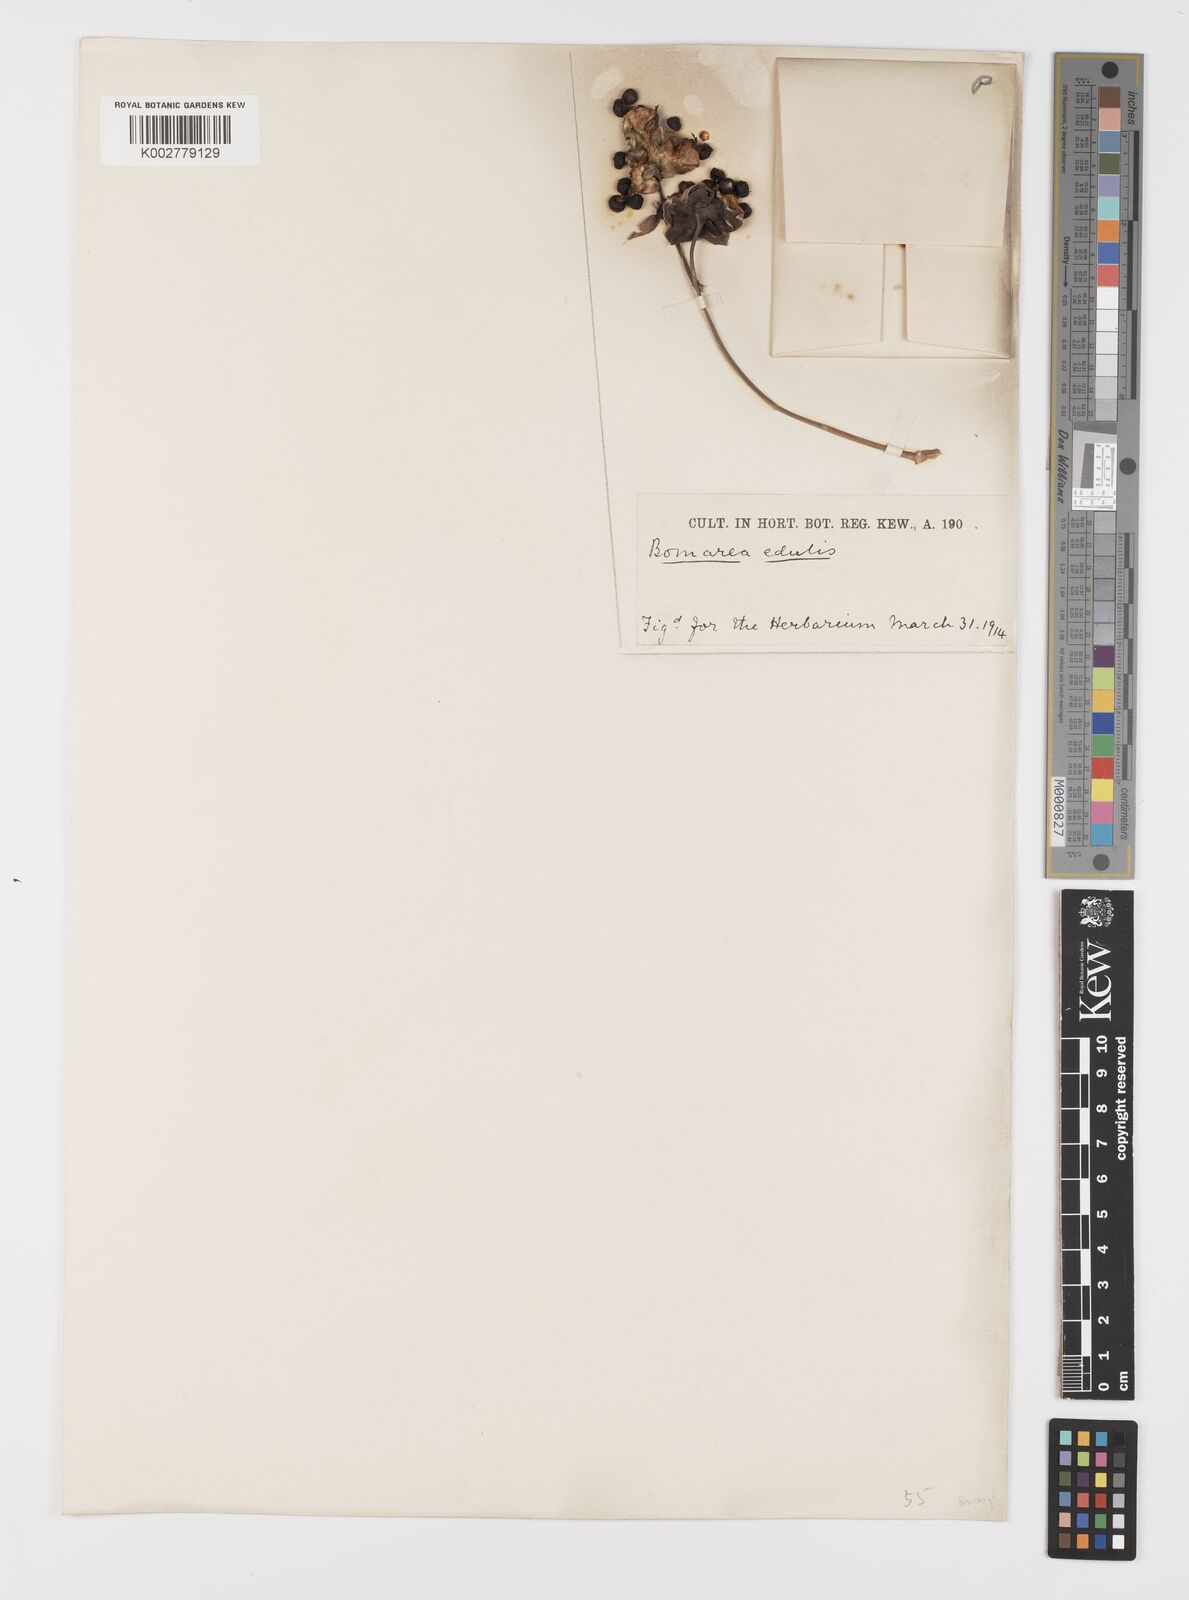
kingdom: Plantae
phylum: Tracheophyta
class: Liliopsida
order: Liliales
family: Alstroemeriaceae
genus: Bomarea
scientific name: Bomarea edulis
